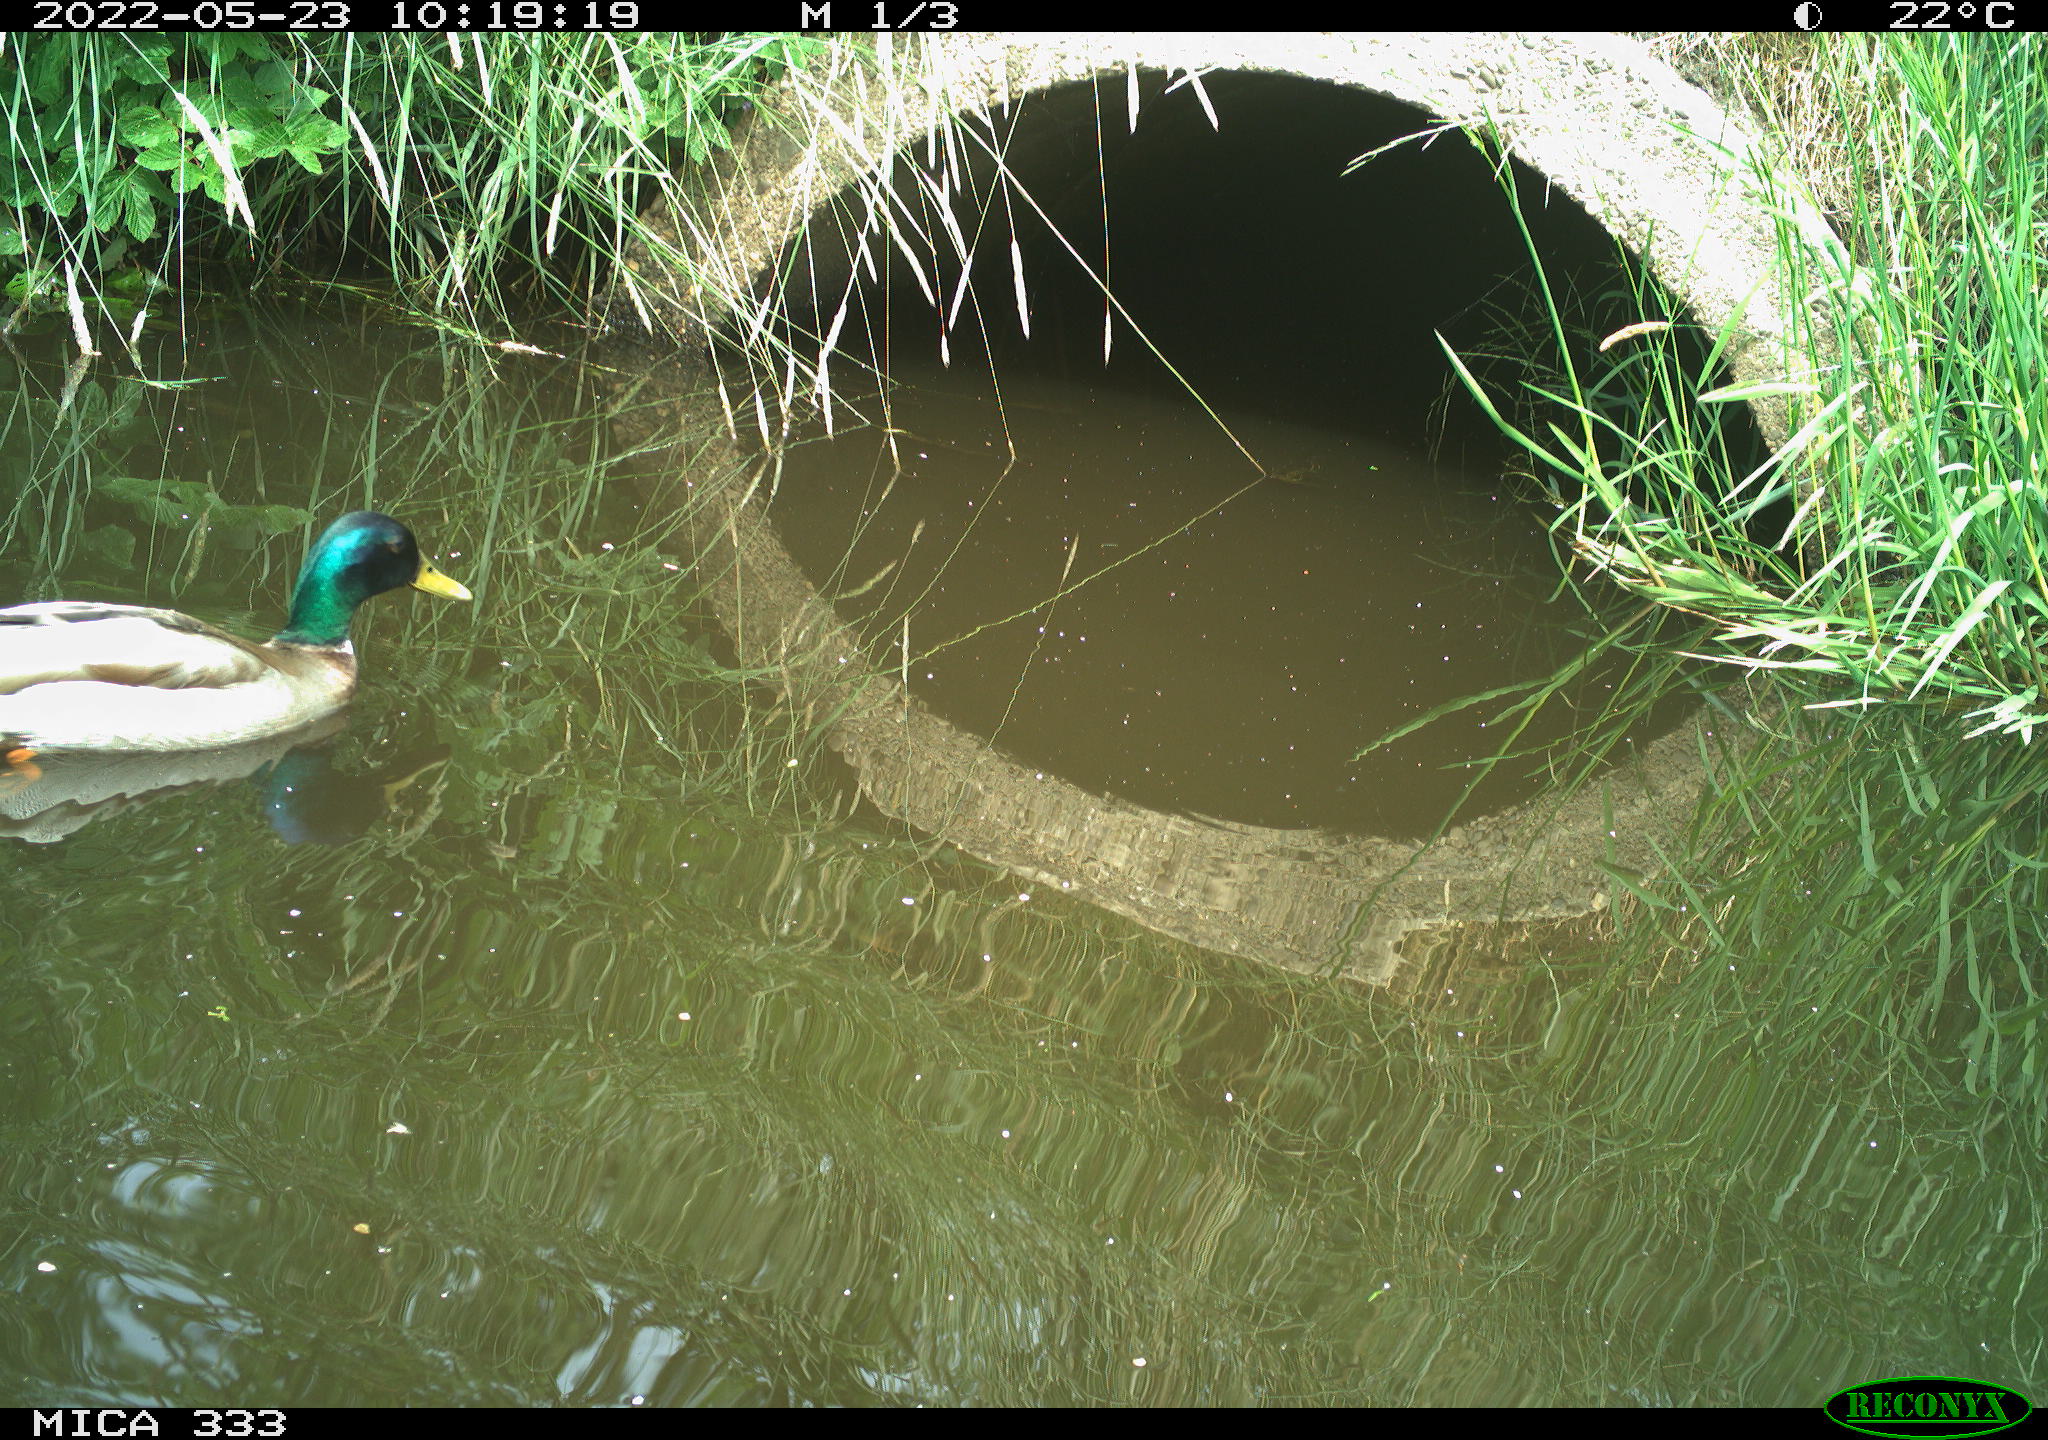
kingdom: Animalia
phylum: Chordata
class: Aves
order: Anseriformes
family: Anatidae
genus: Anas
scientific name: Anas platyrhynchos
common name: Mallard
